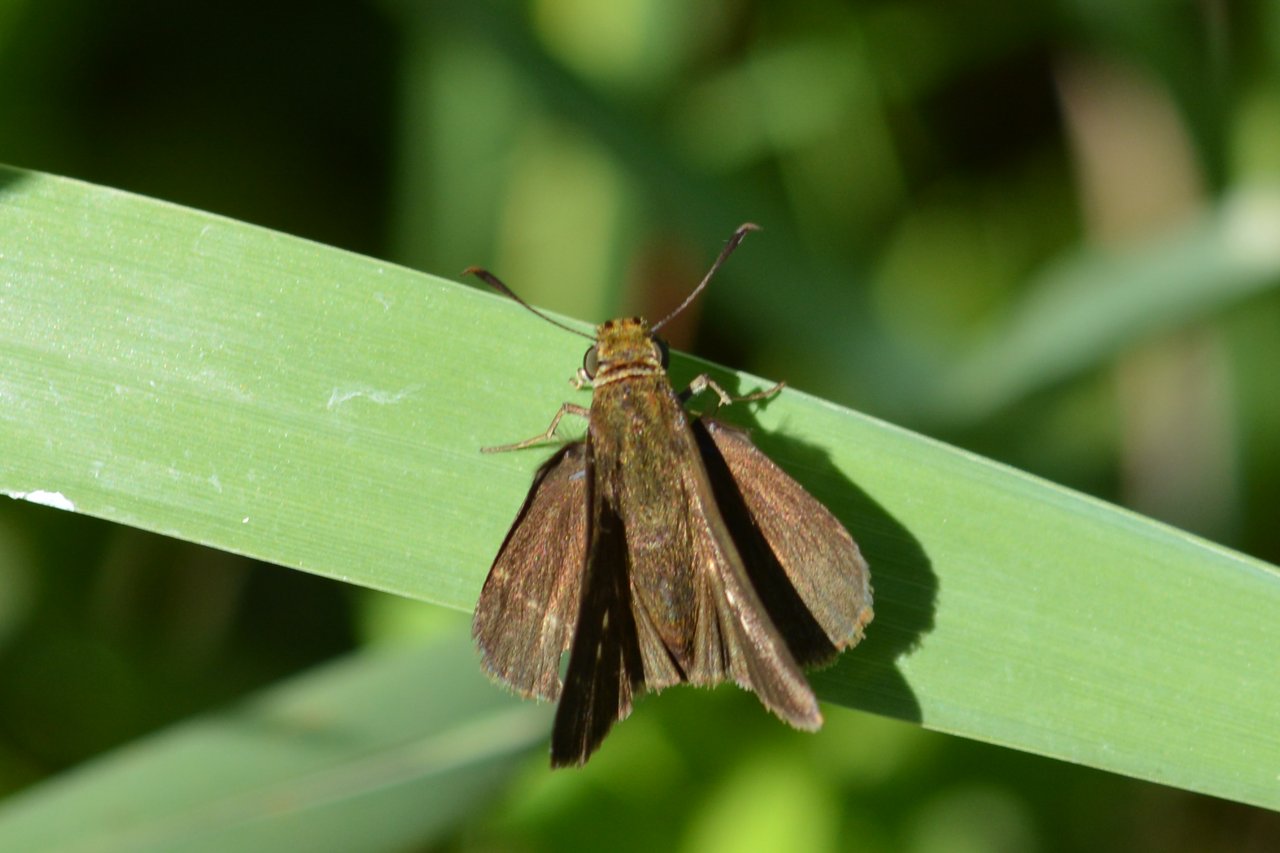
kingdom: Animalia
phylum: Arthropoda
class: Insecta
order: Lepidoptera
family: Hesperiidae
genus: Euphyes
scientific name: Euphyes vestris
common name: Dun Skipper
